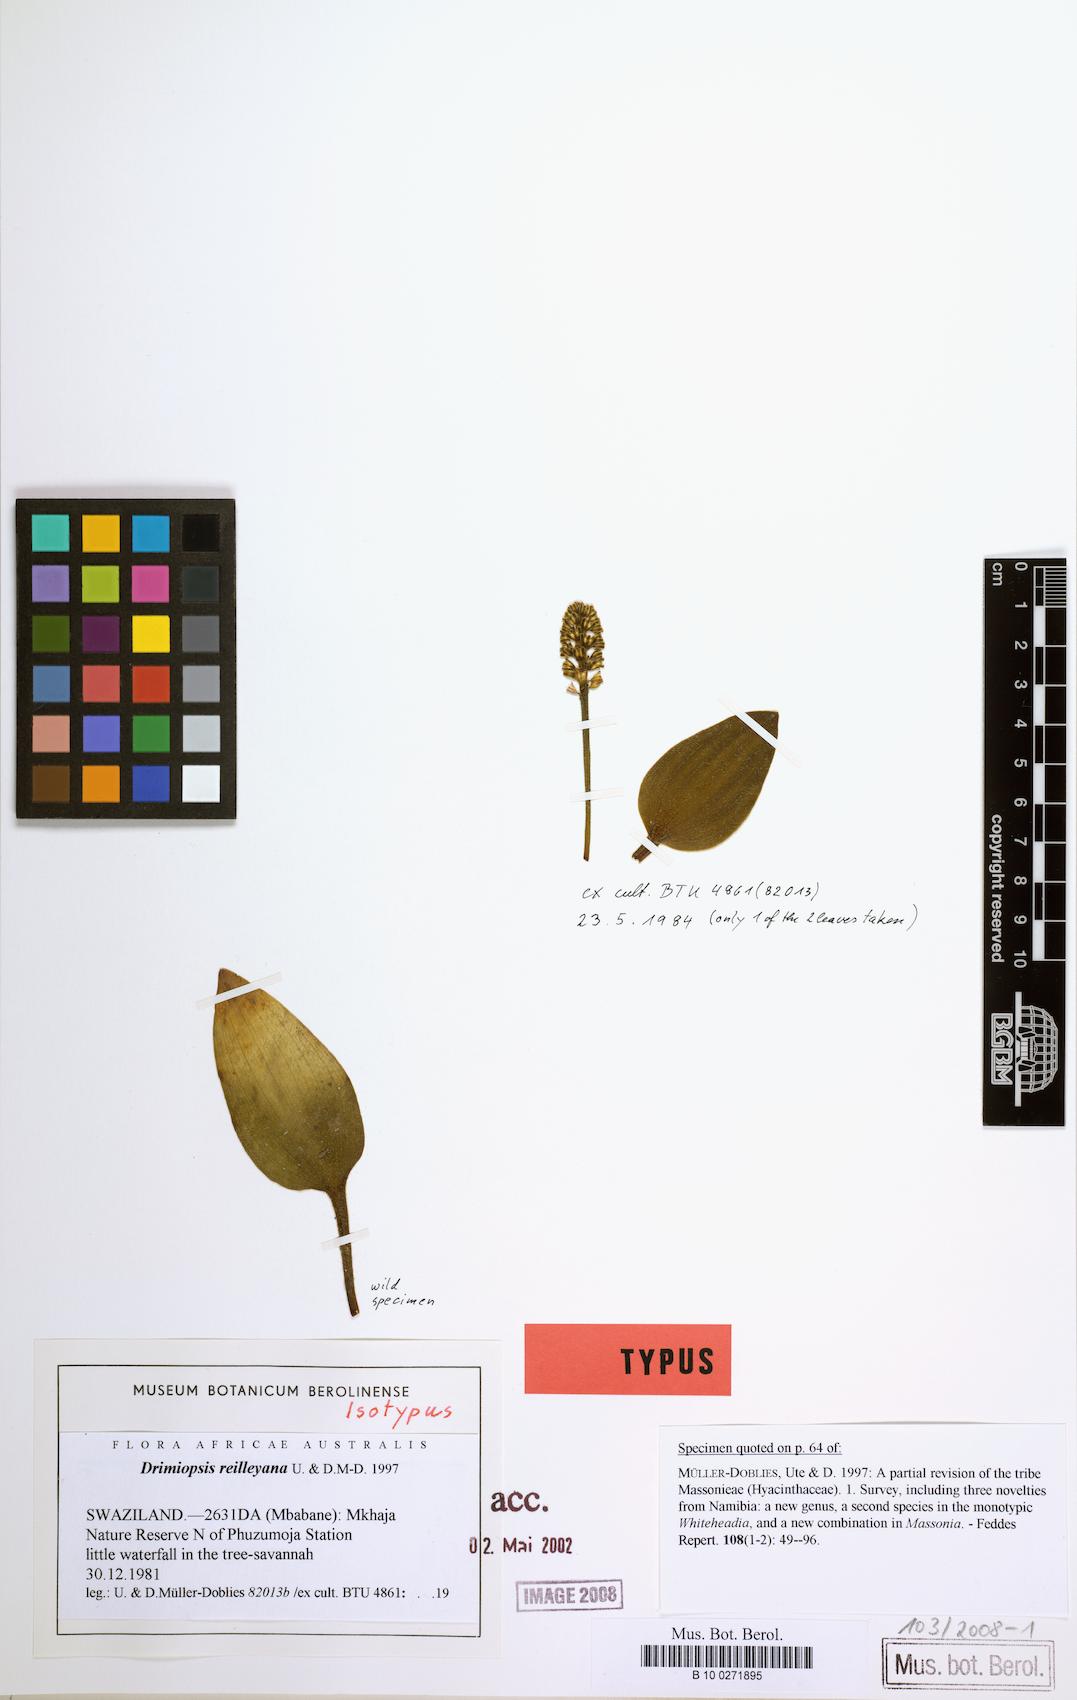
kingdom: Plantae
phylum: Tracheophyta
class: Liliopsida
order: Asparagales
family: Asparagaceae
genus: Drimiopsis
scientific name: Drimiopsis reilleyana
